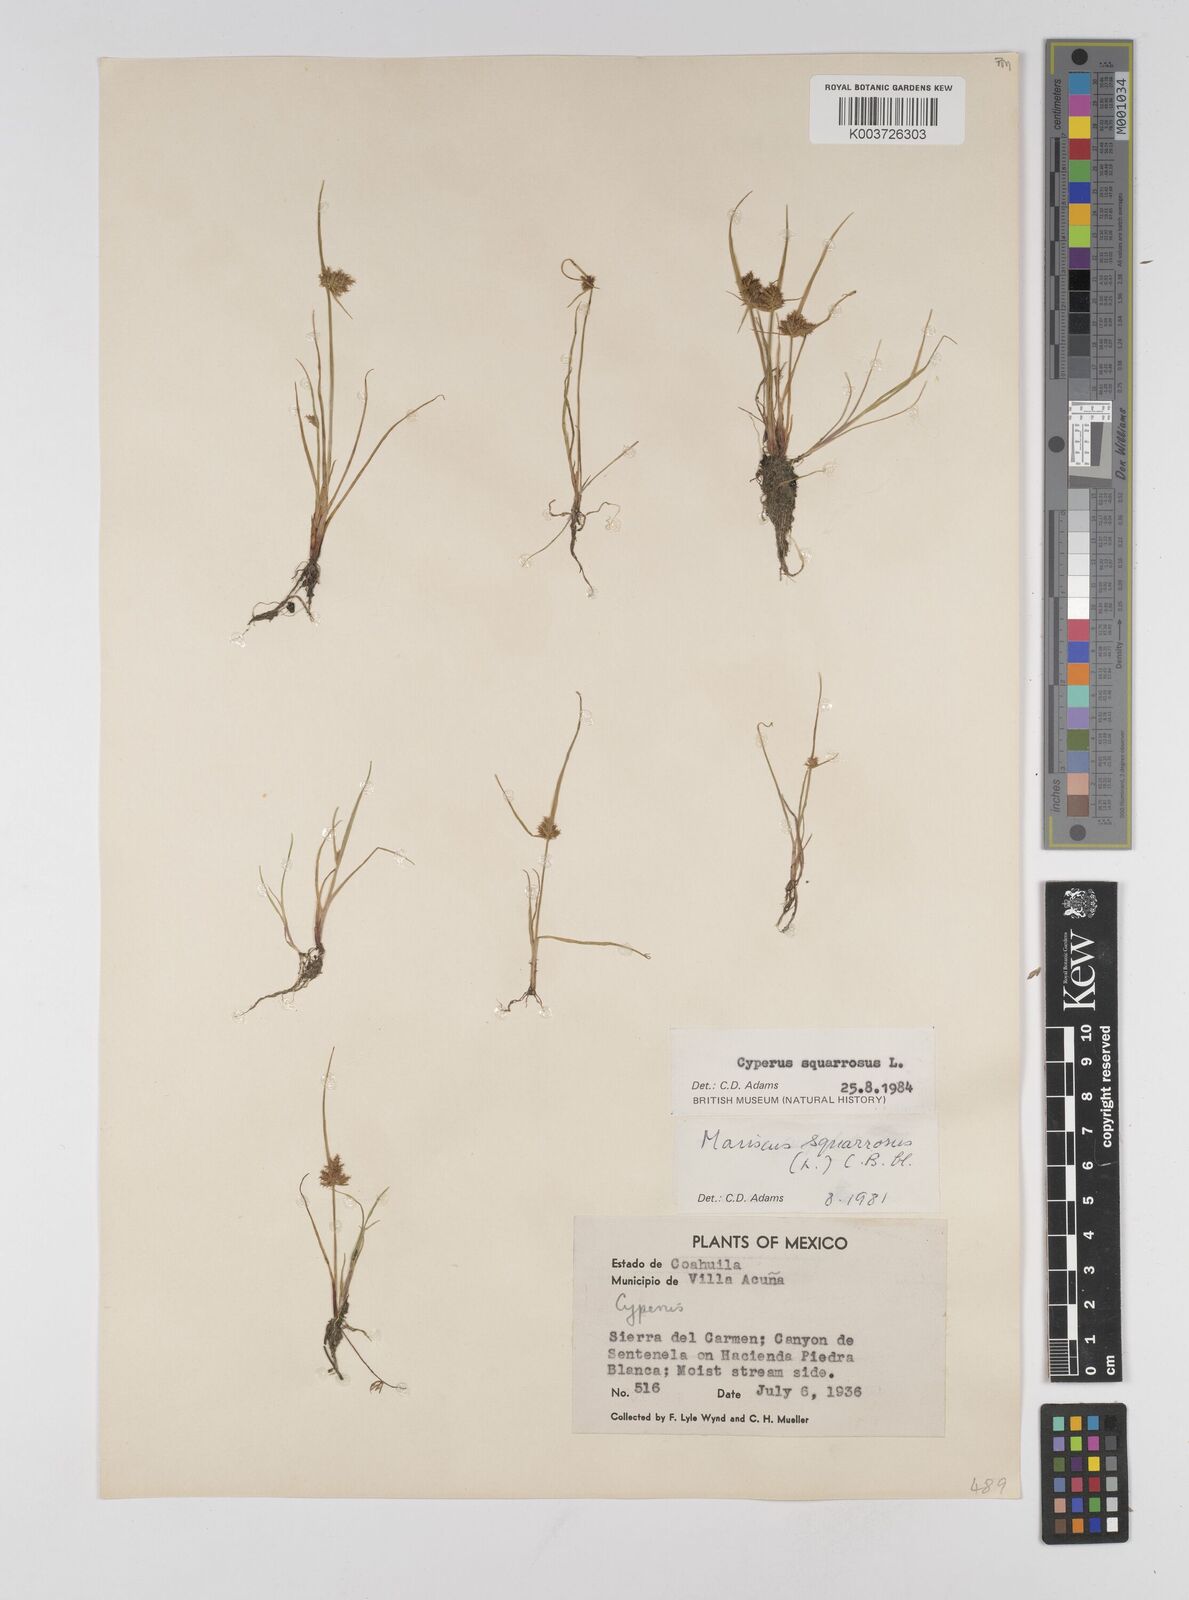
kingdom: Plantae
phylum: Tracheophyta
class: Liliopsida
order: Poales
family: Cyperaceae
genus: Cyperus
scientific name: Cyperus squarrosus
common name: Awned cyperus
